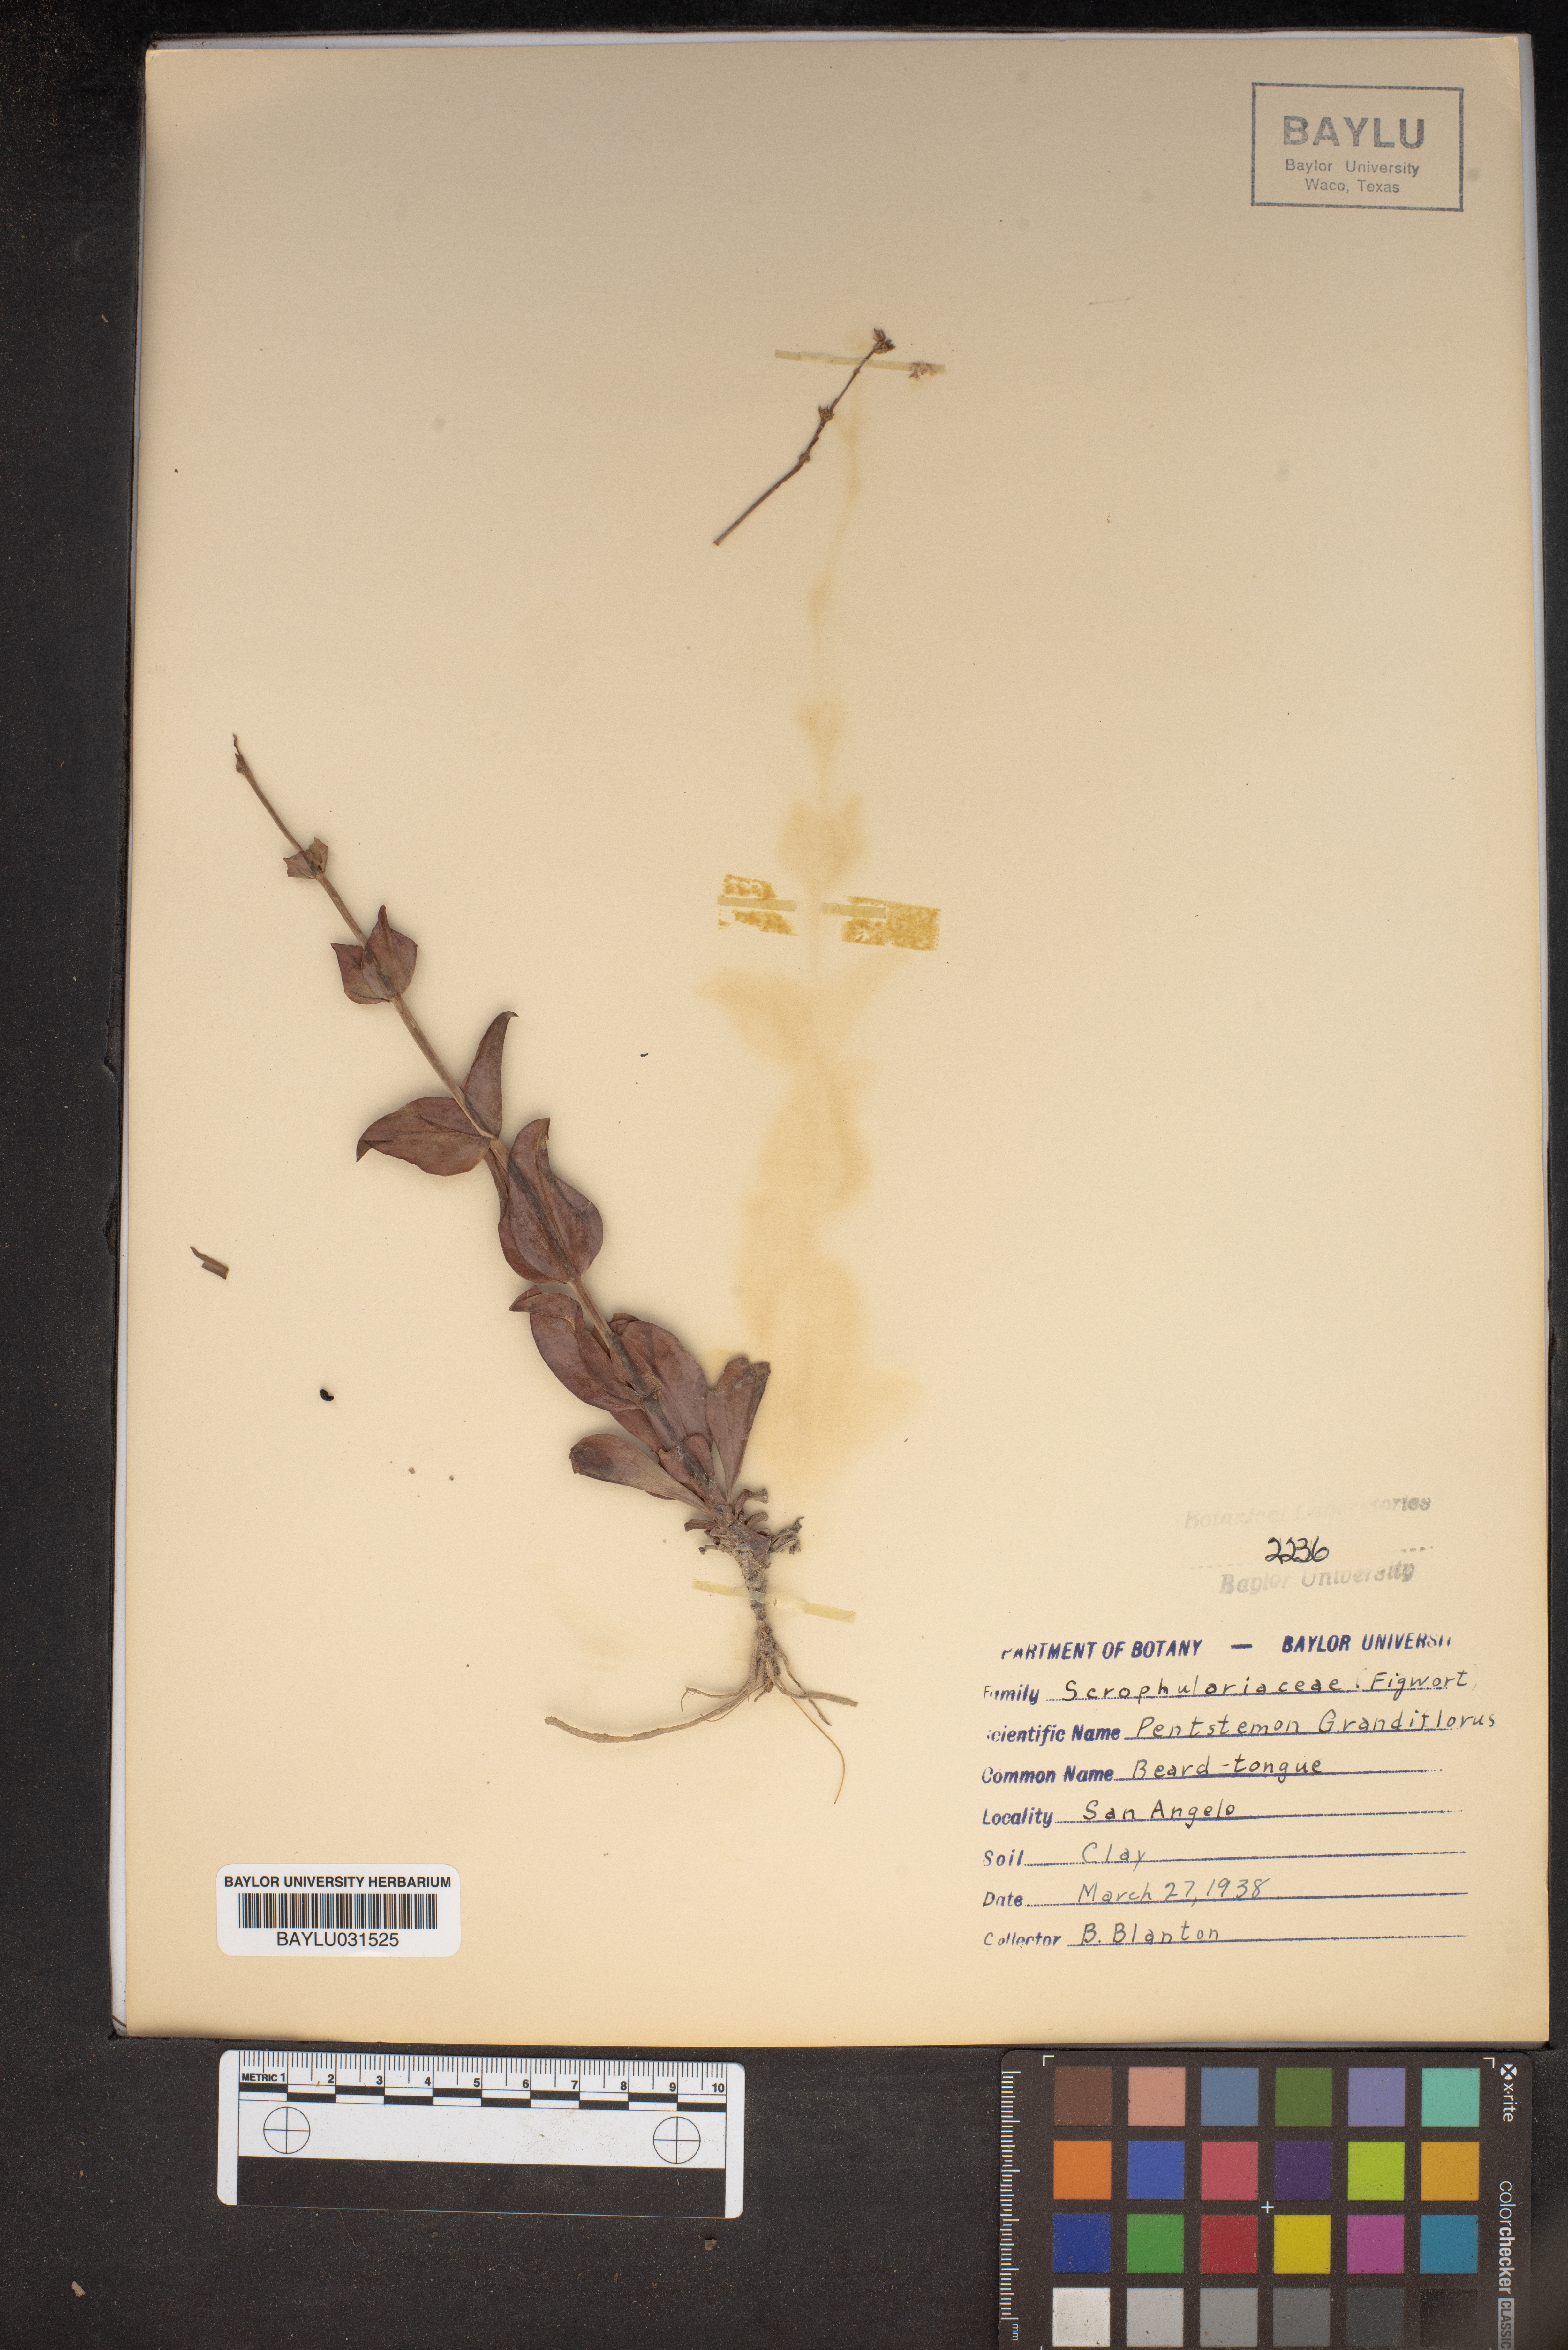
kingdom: Plantae
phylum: Tracheophyta
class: Magnoliopsida
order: Lamiales
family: Plantaginaceae
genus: Penstemon
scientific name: Penstemon bradburyi
